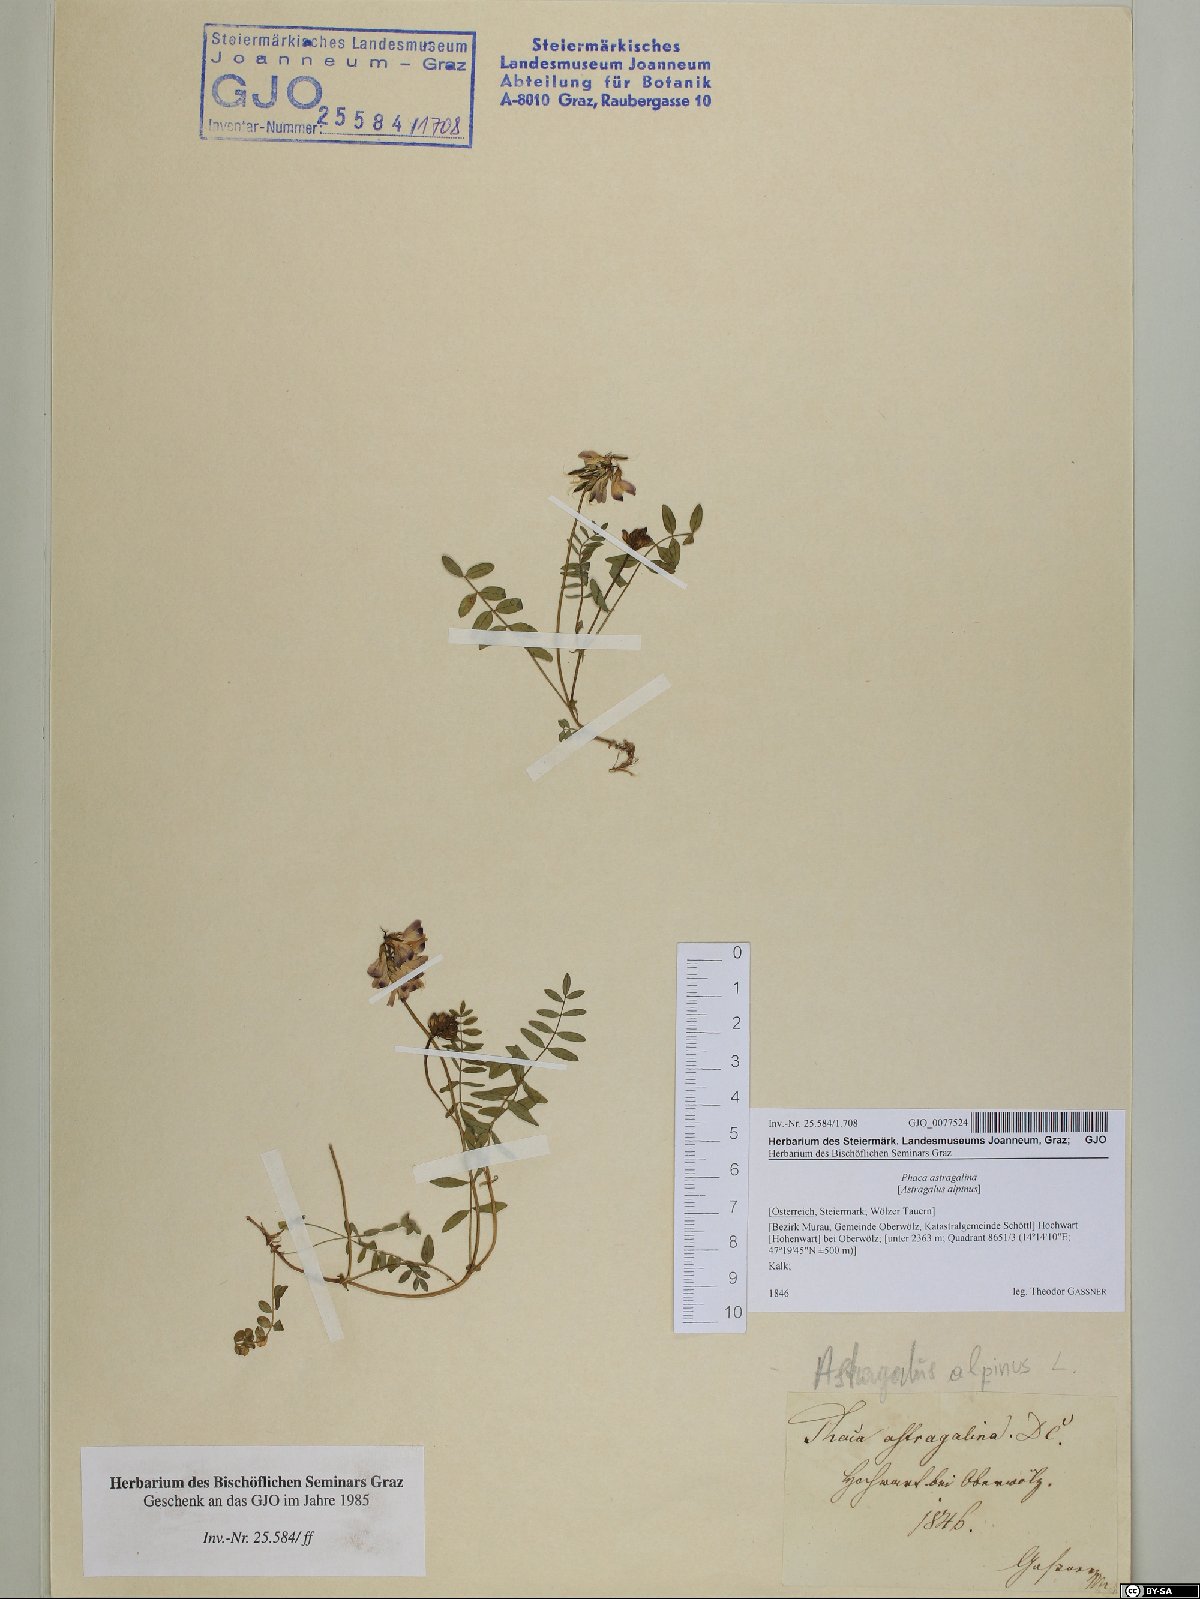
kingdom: Plantae
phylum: Tracheophyta
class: Magnoliopsida
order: Fabales
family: Fabaceae
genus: Astragalus
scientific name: Astragalus alpinus
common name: Alpine milk-vetch
